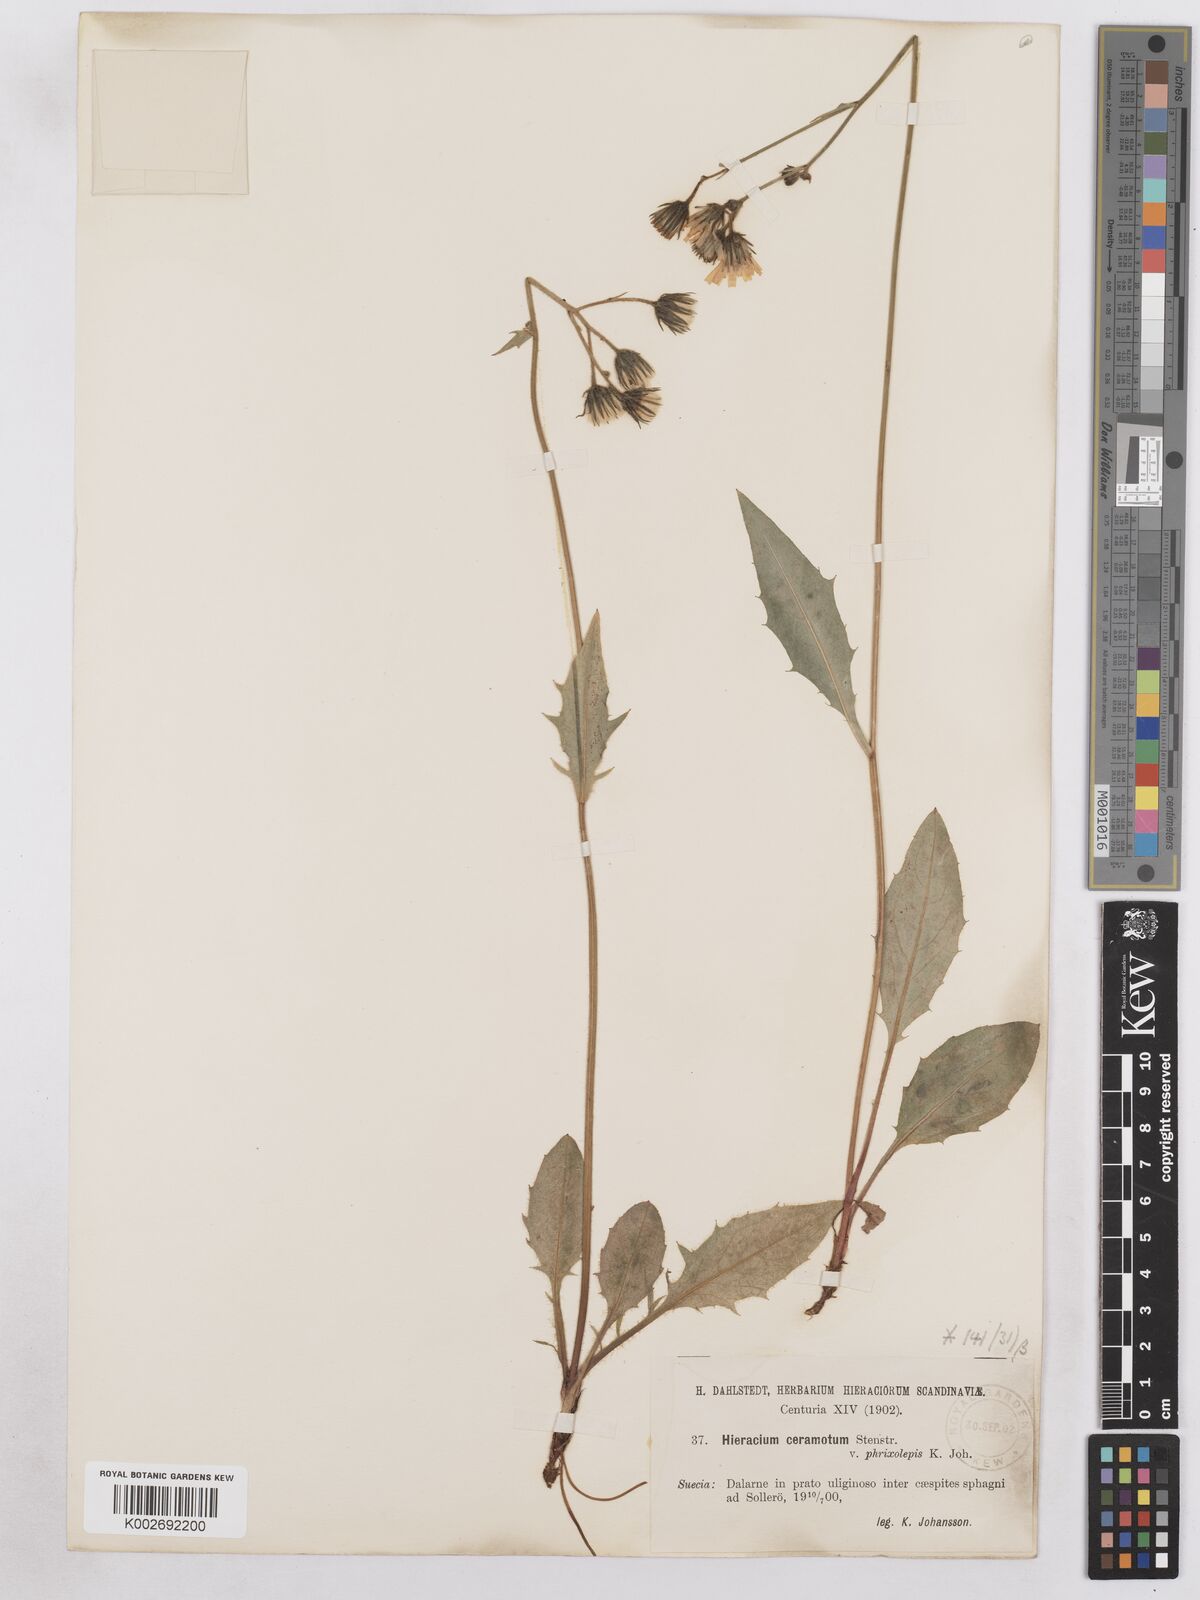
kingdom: Plantae
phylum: Tracheophyta
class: Magnoliopsida
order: Asterales
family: Asteraceae
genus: Hieracium
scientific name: Hieracium diaphanoides
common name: Fine-bracted hawkweed
